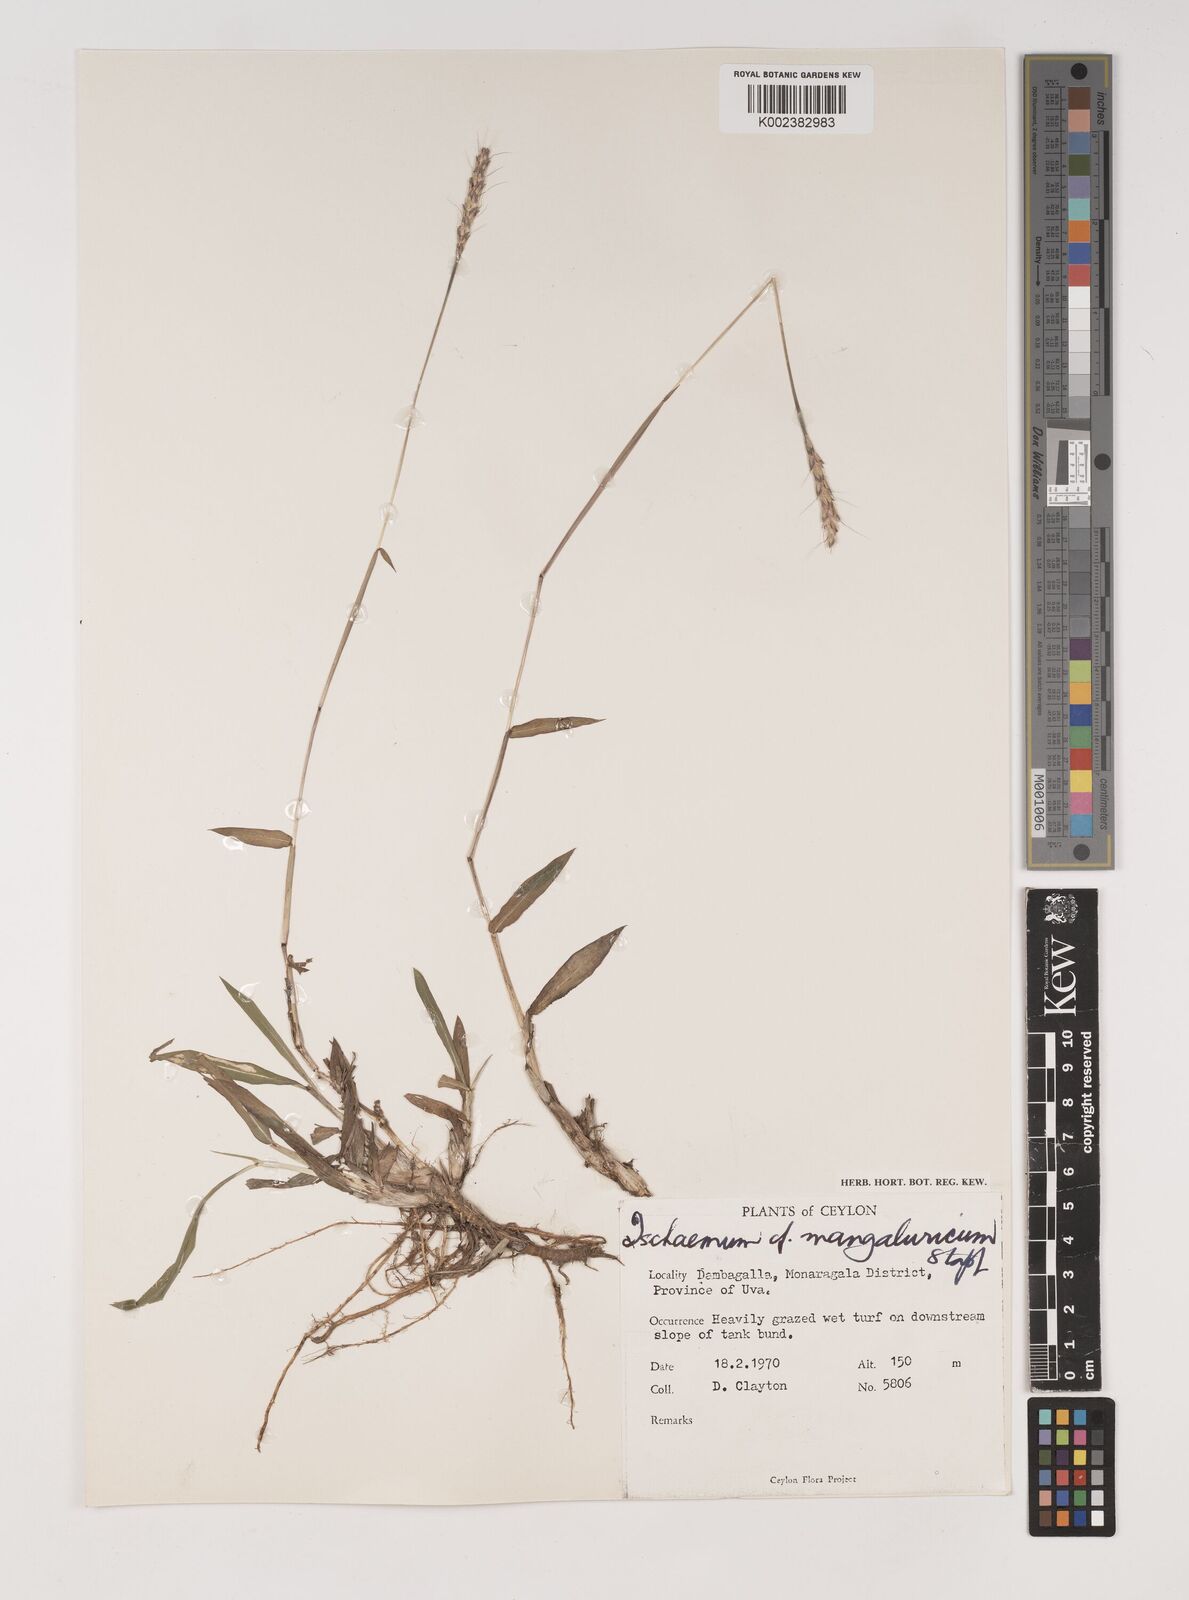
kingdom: Plantae
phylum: Tracheophyta
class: Liliopsida
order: Poales
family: Poaceae
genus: Ischaemum
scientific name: Ischaemum barbatum
